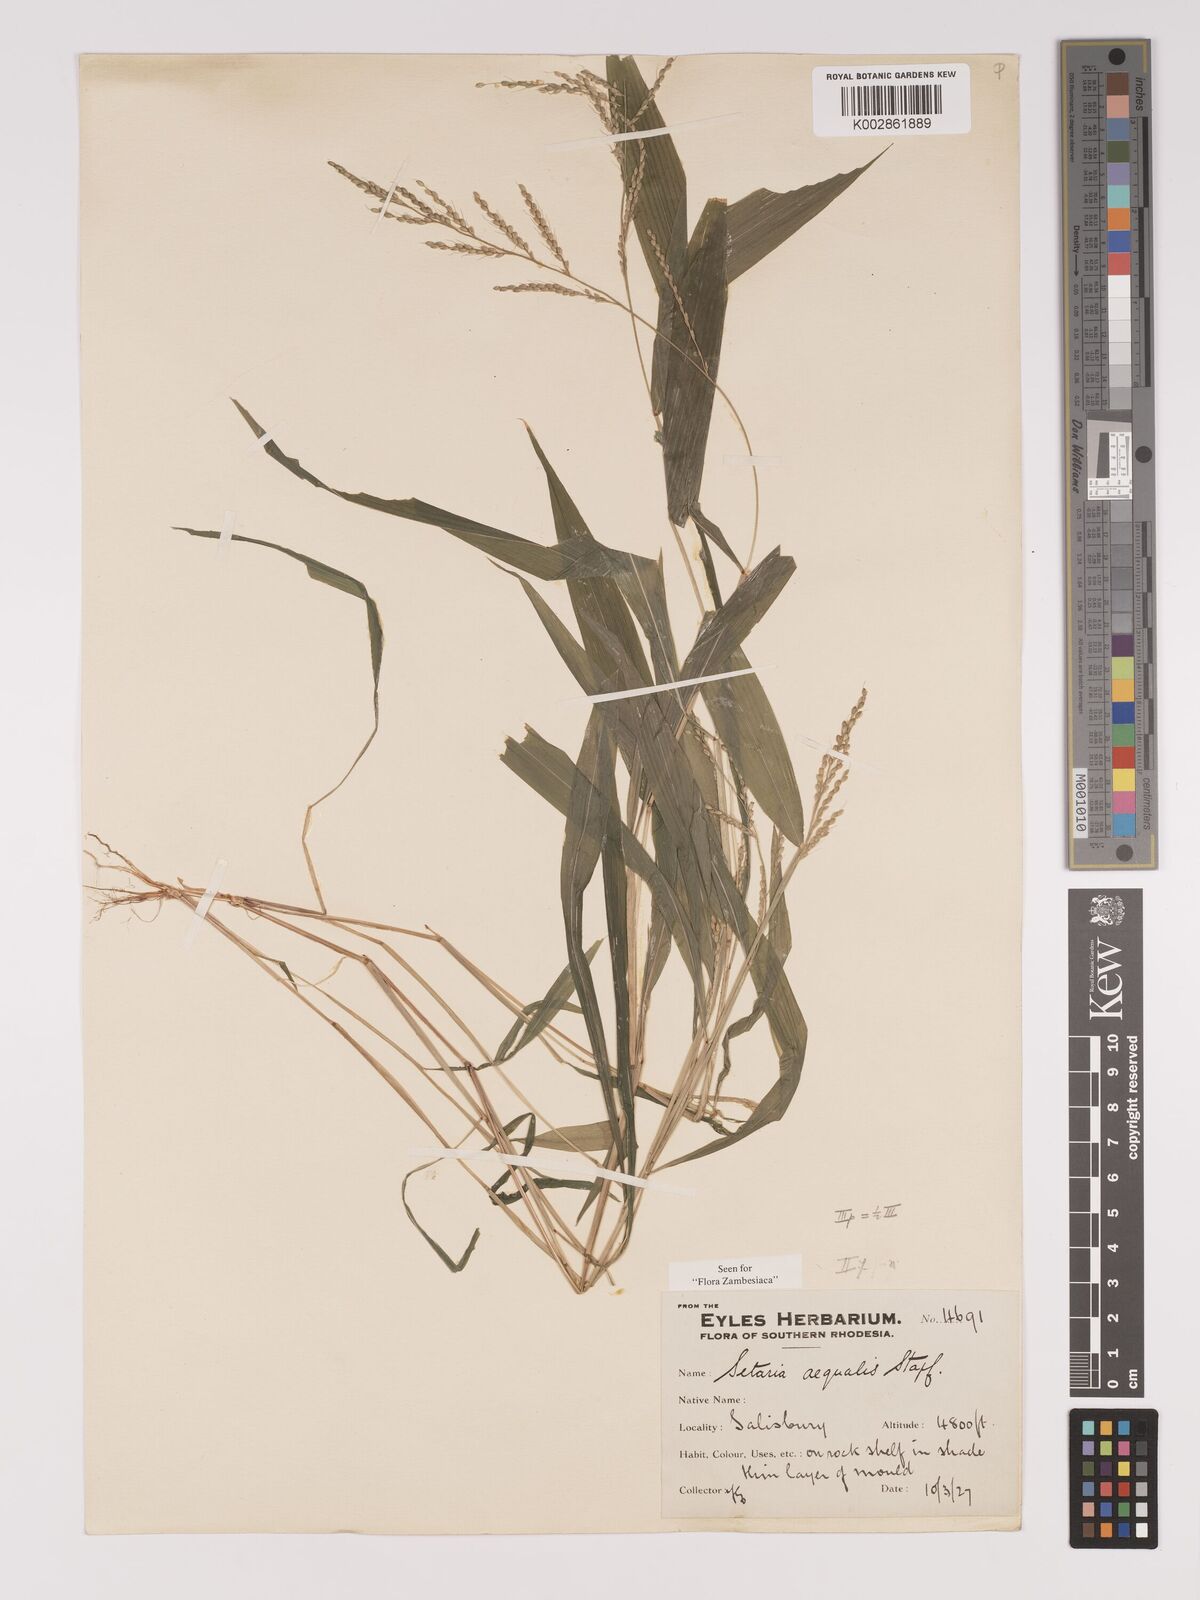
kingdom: Plantae
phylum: Tracheophyta
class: Liliopsida
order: Poales
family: Poaceae
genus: Setaria
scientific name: Setaria homonyma
